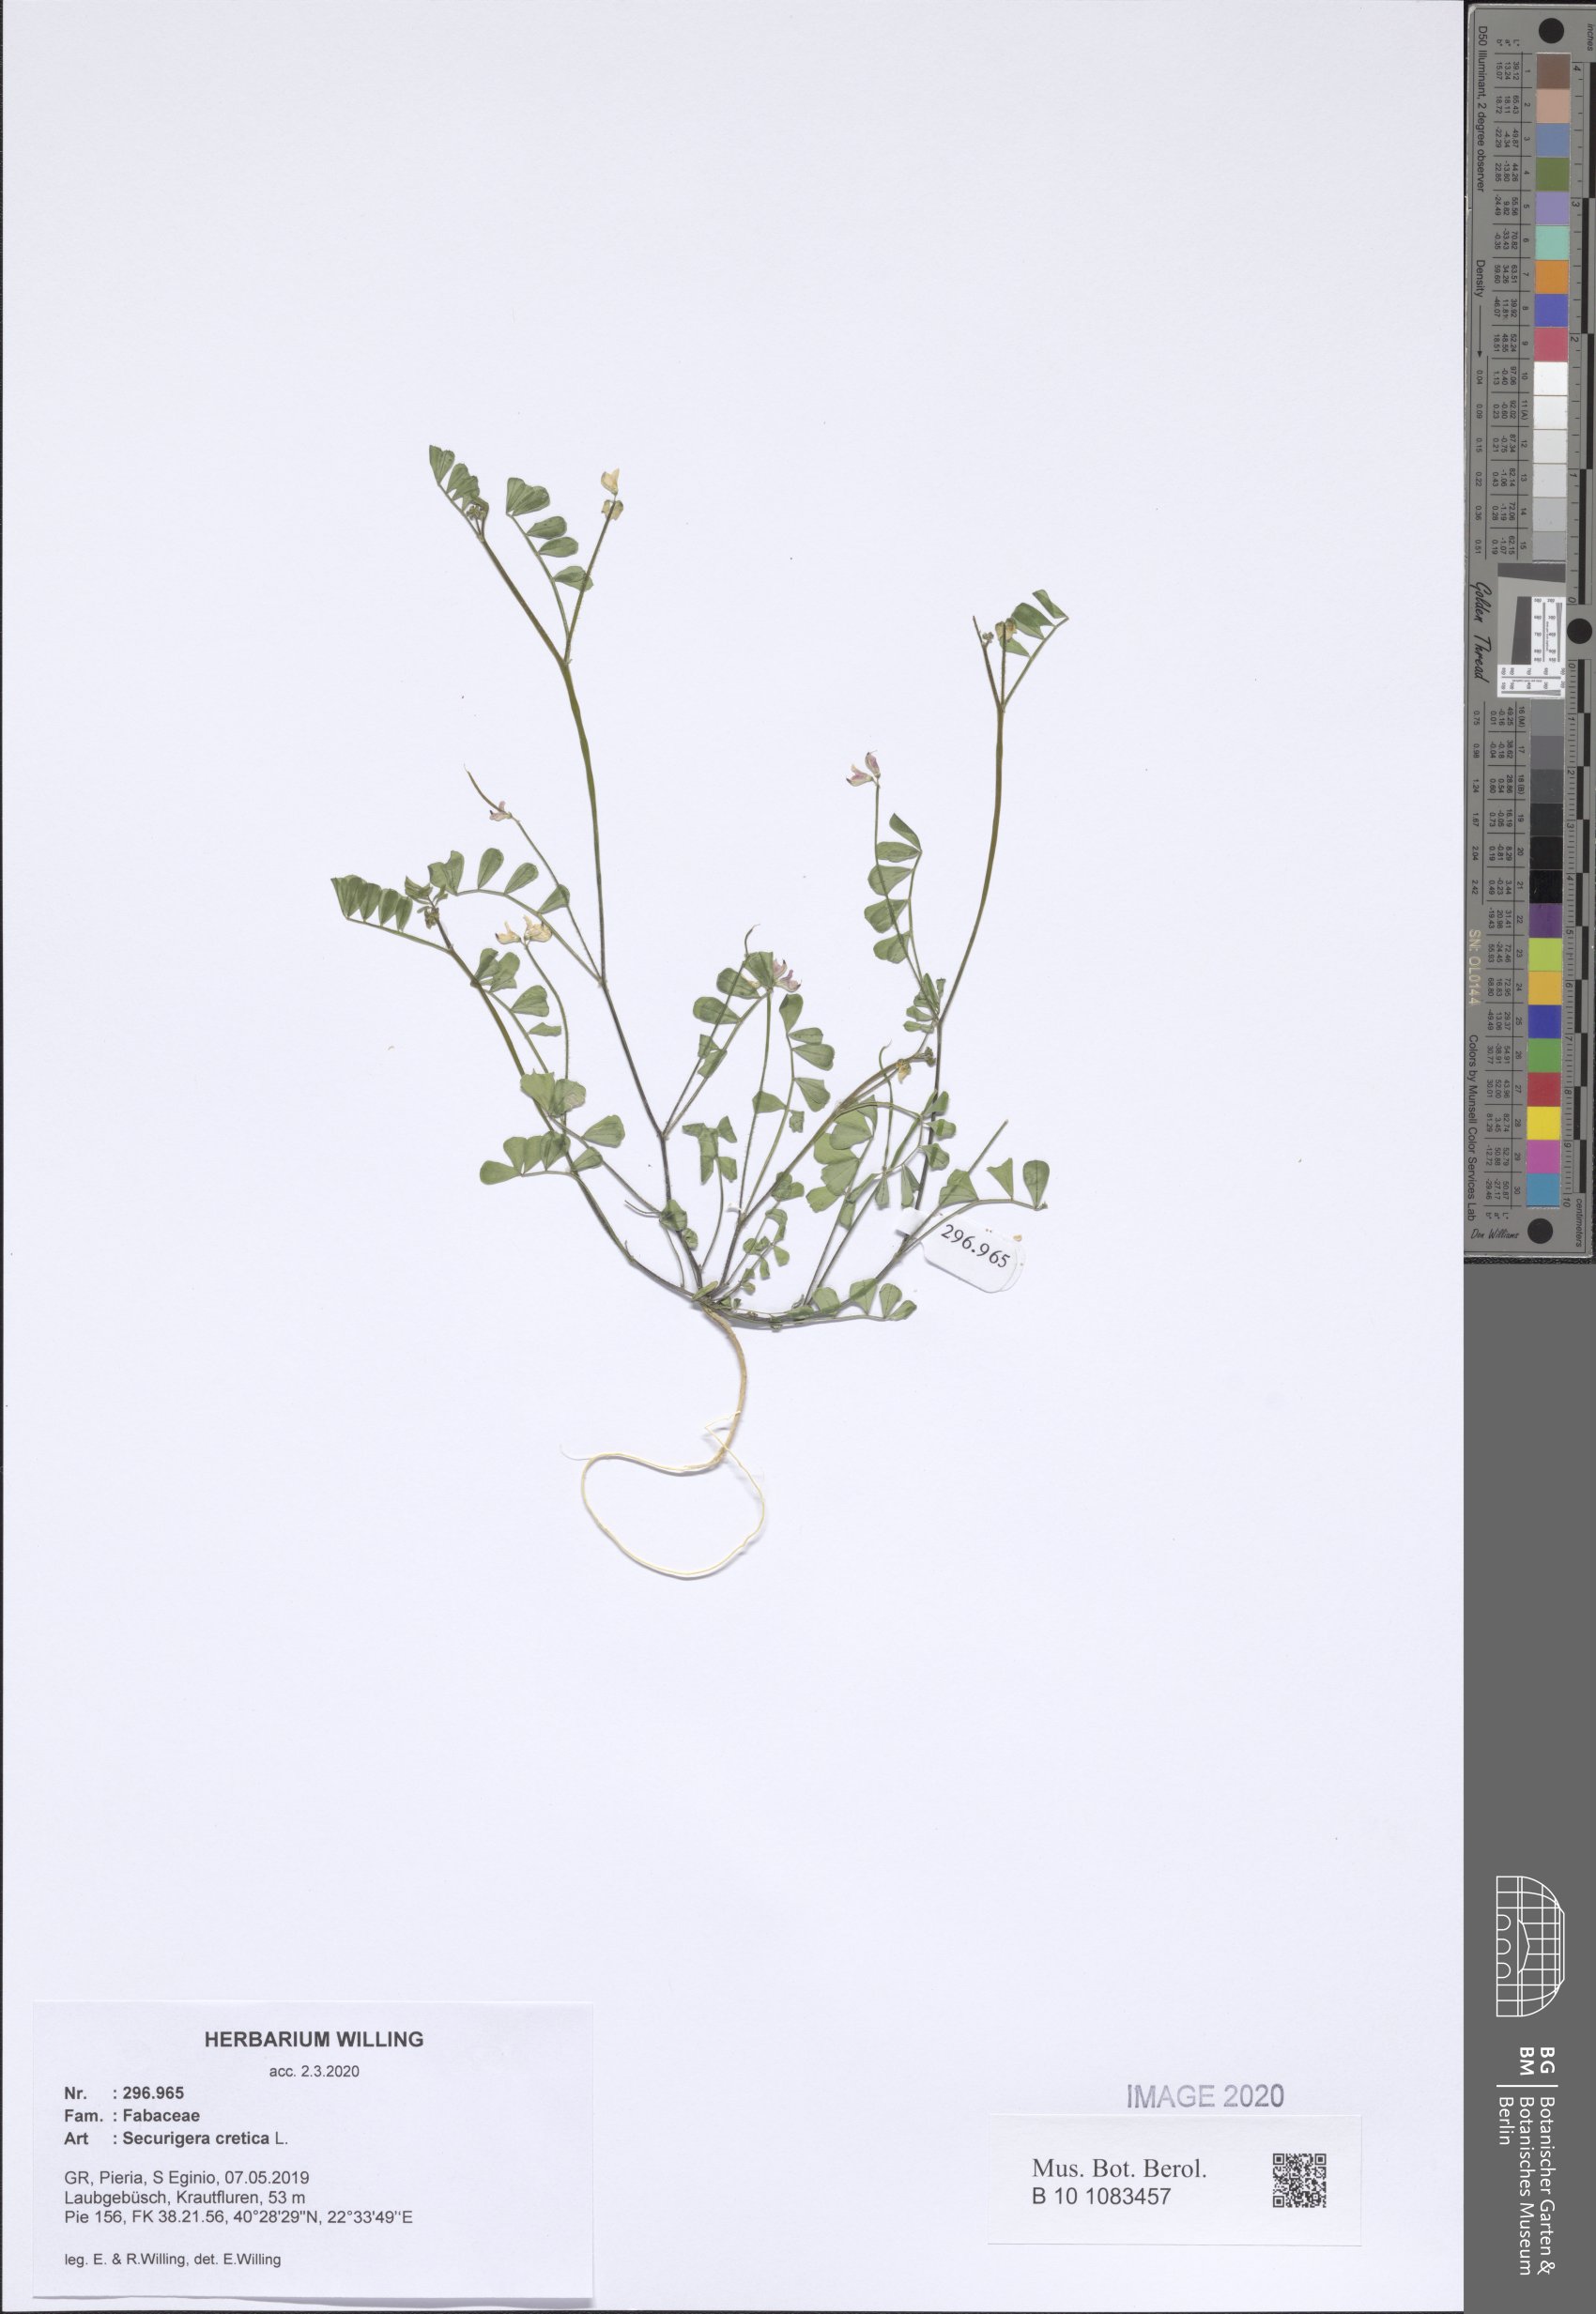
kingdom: Plantae
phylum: Tracheophyta
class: Magnoliopsida
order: Fabales
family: Fabaceae
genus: Coronilla
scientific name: Coronilla cretica
